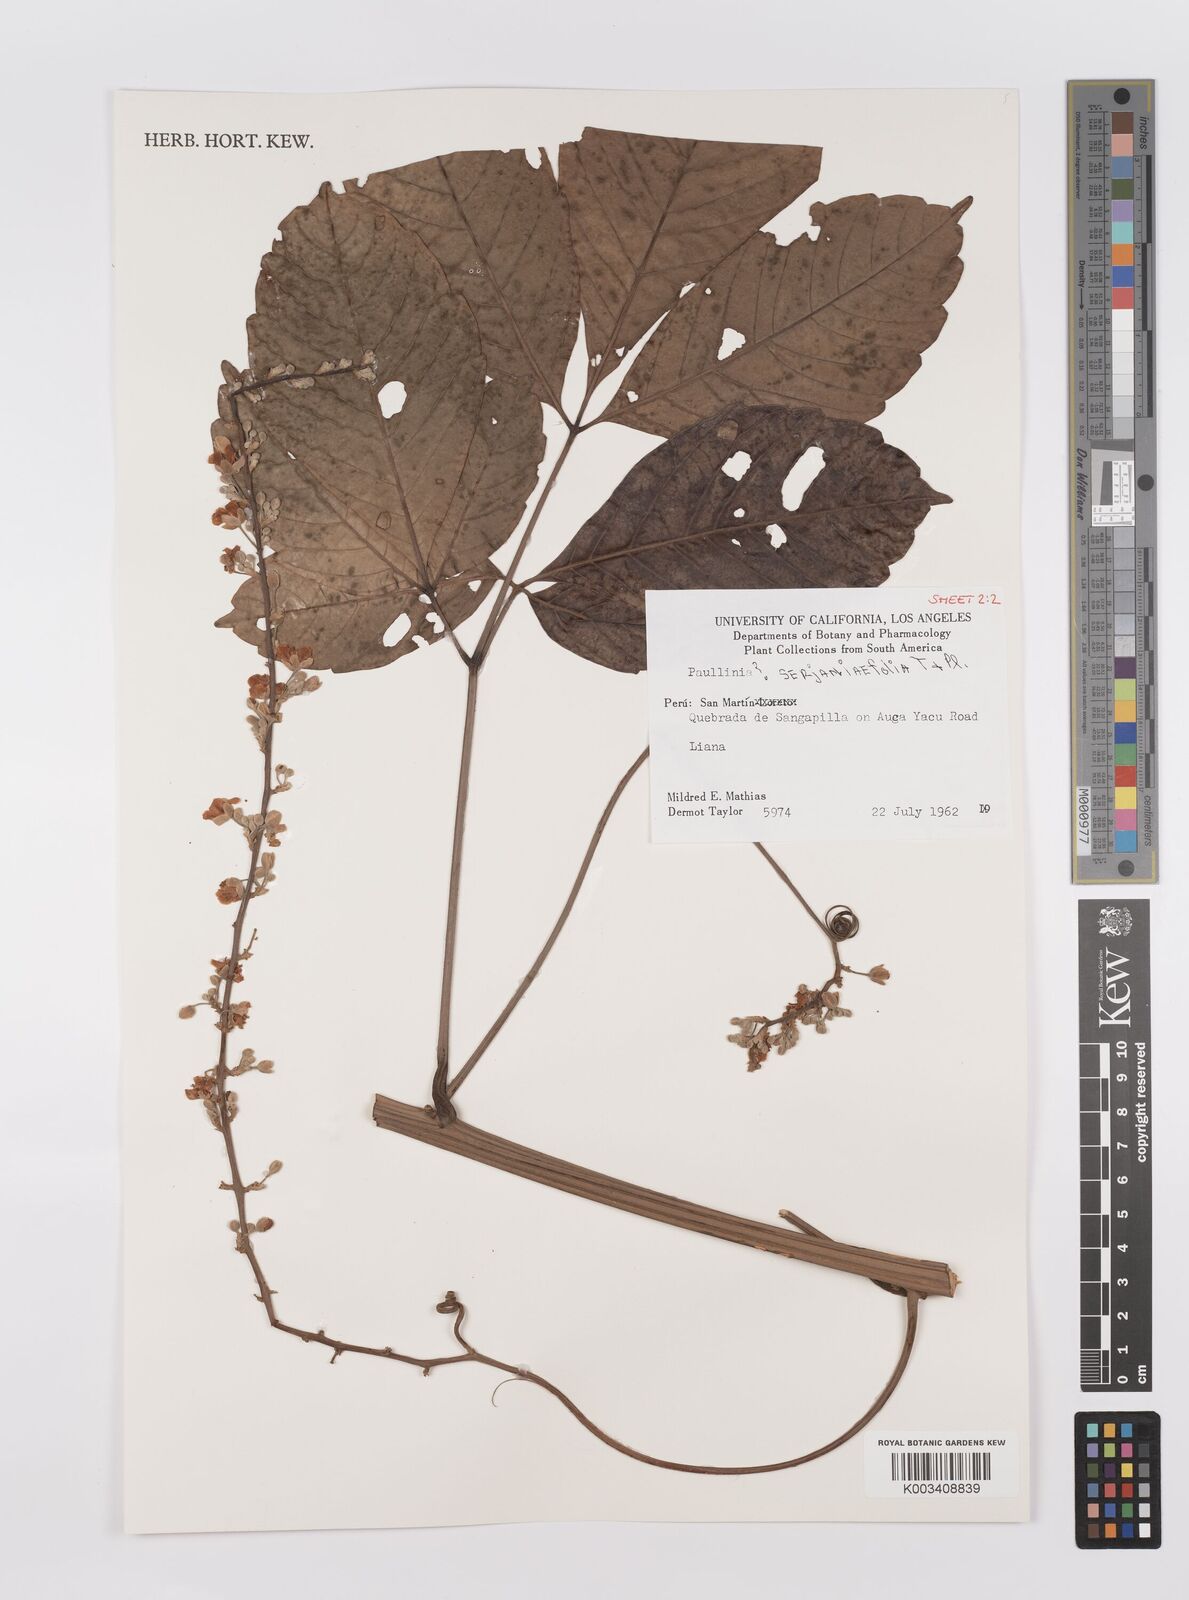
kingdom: Plantae
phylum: Tracheophyta
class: Magnoliopsida
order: Sapindales
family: Sapindaceae
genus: Paullinia
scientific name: Paullinia serjaniifolia
